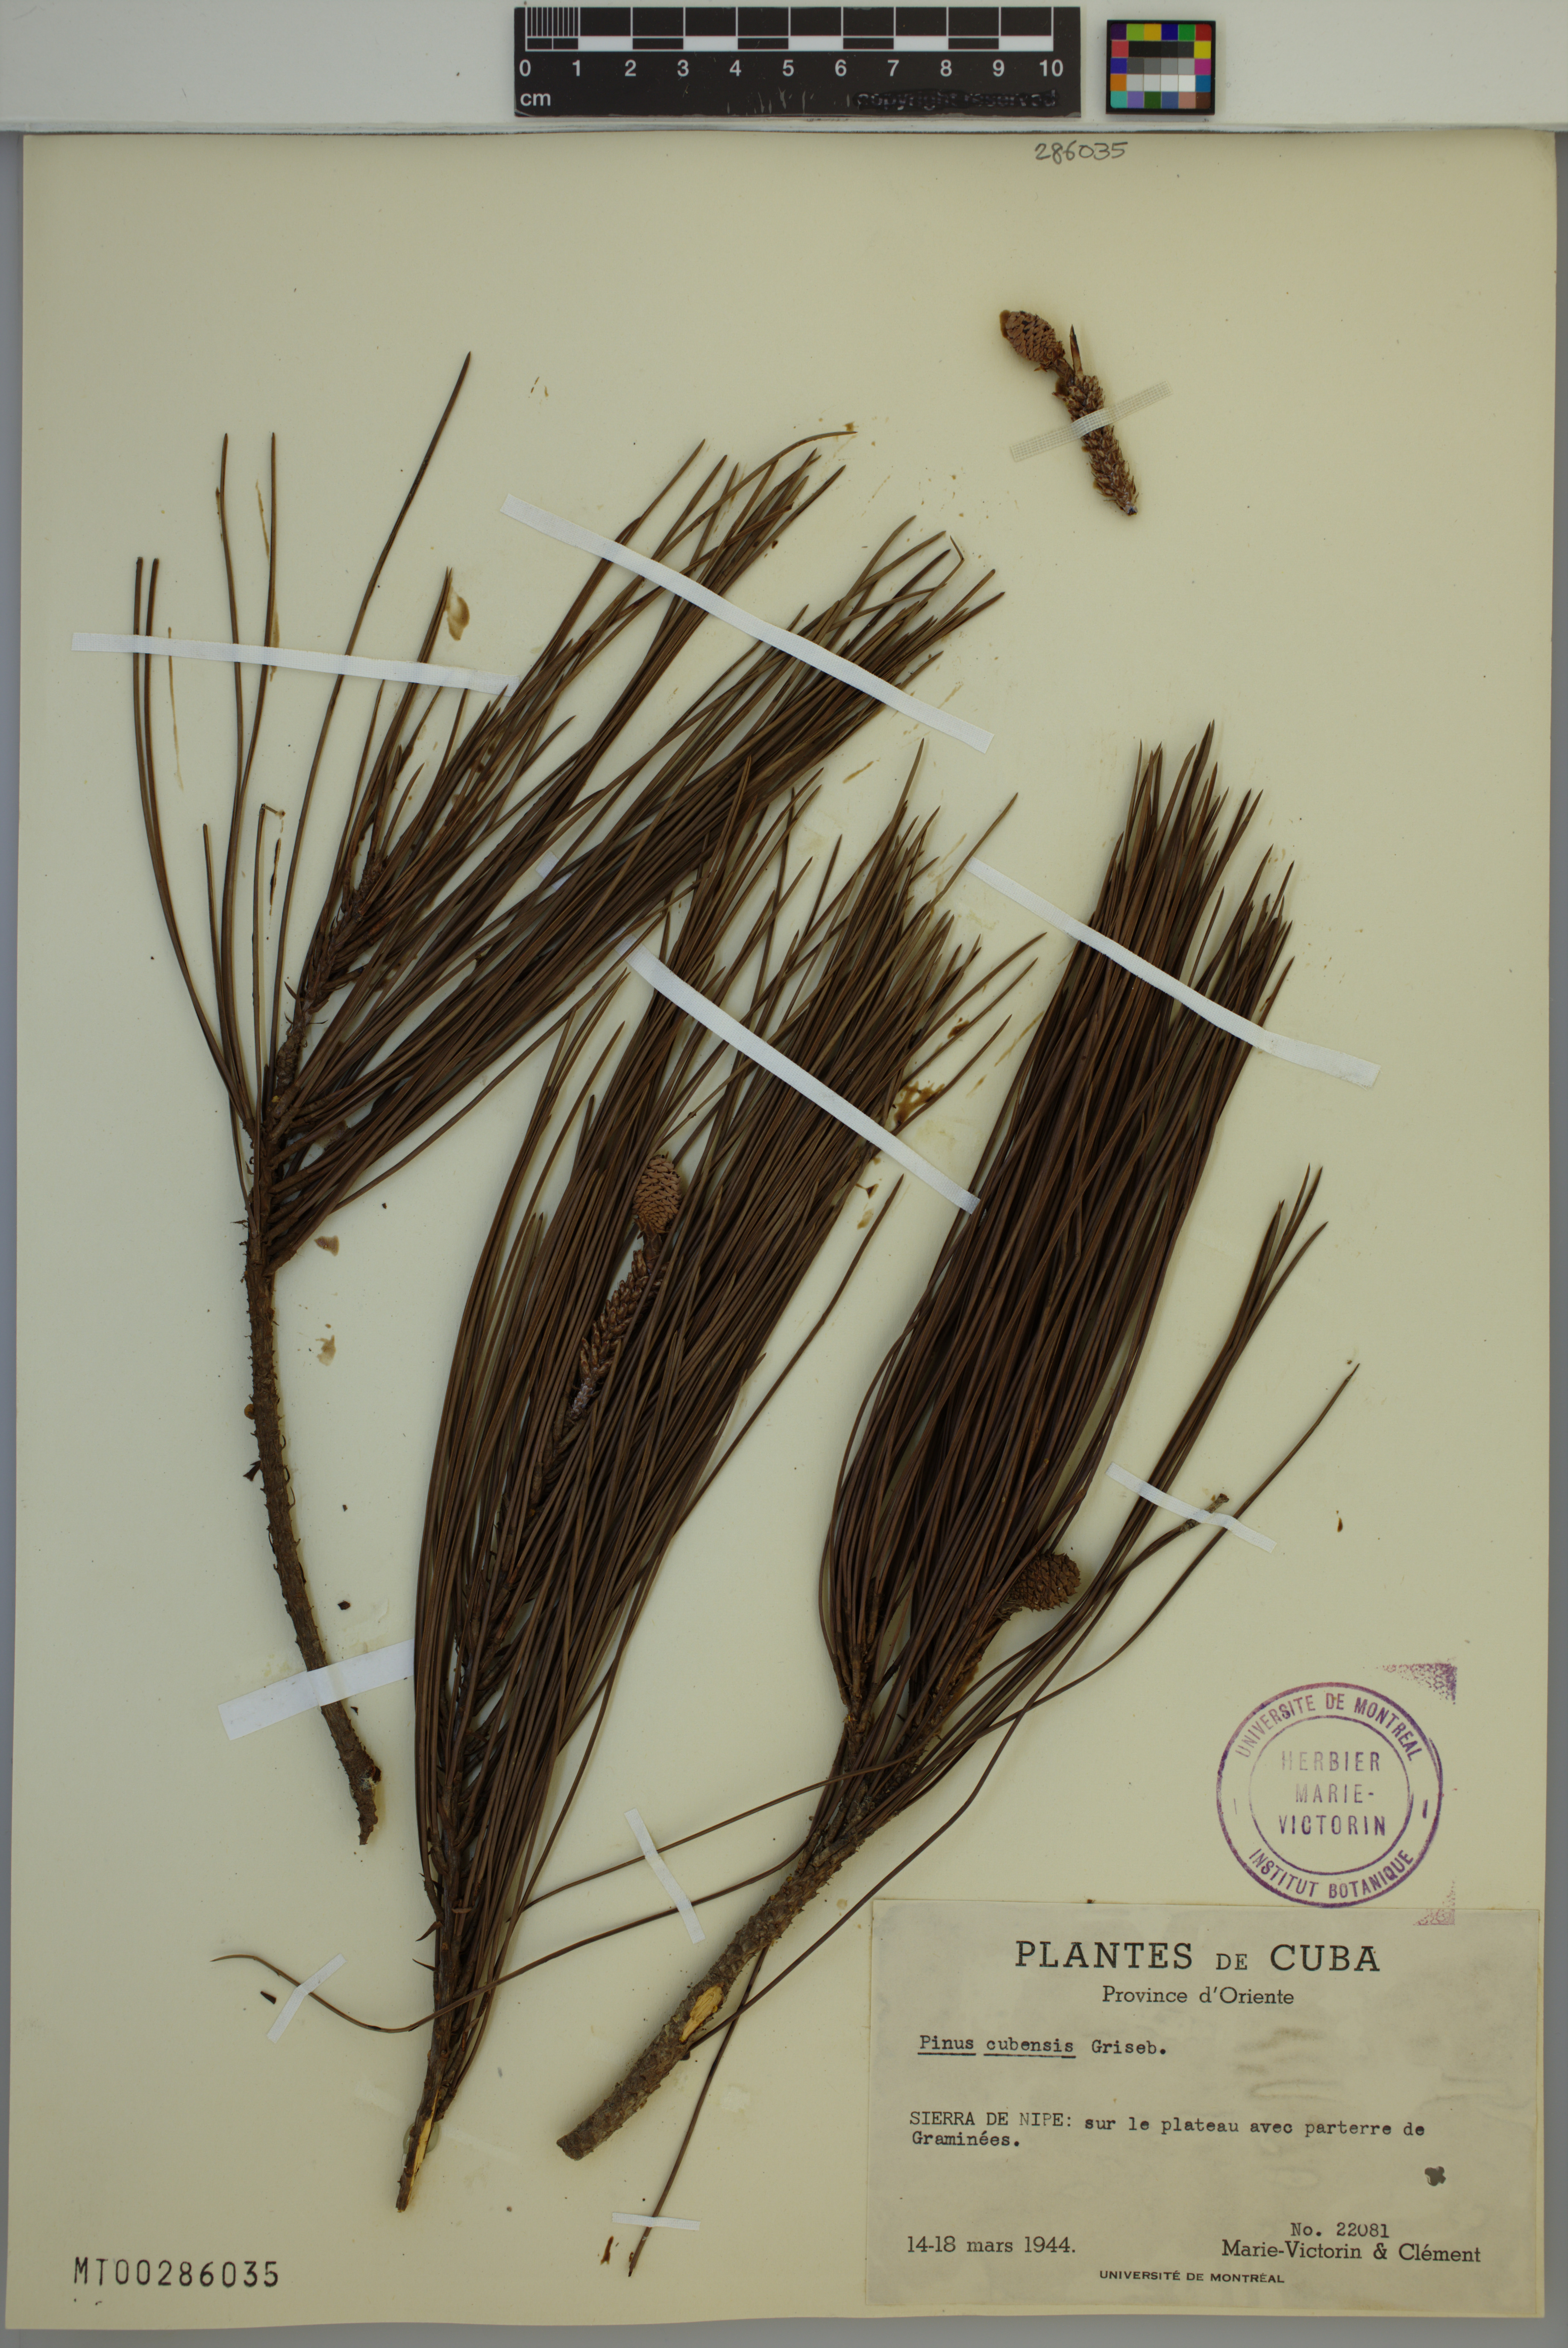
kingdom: Plantae
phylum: Tracheophyta
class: Pinopsida
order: Pinales
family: Pinaceae
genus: Pinus
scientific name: Pinus cubensis
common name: Cuban pine
